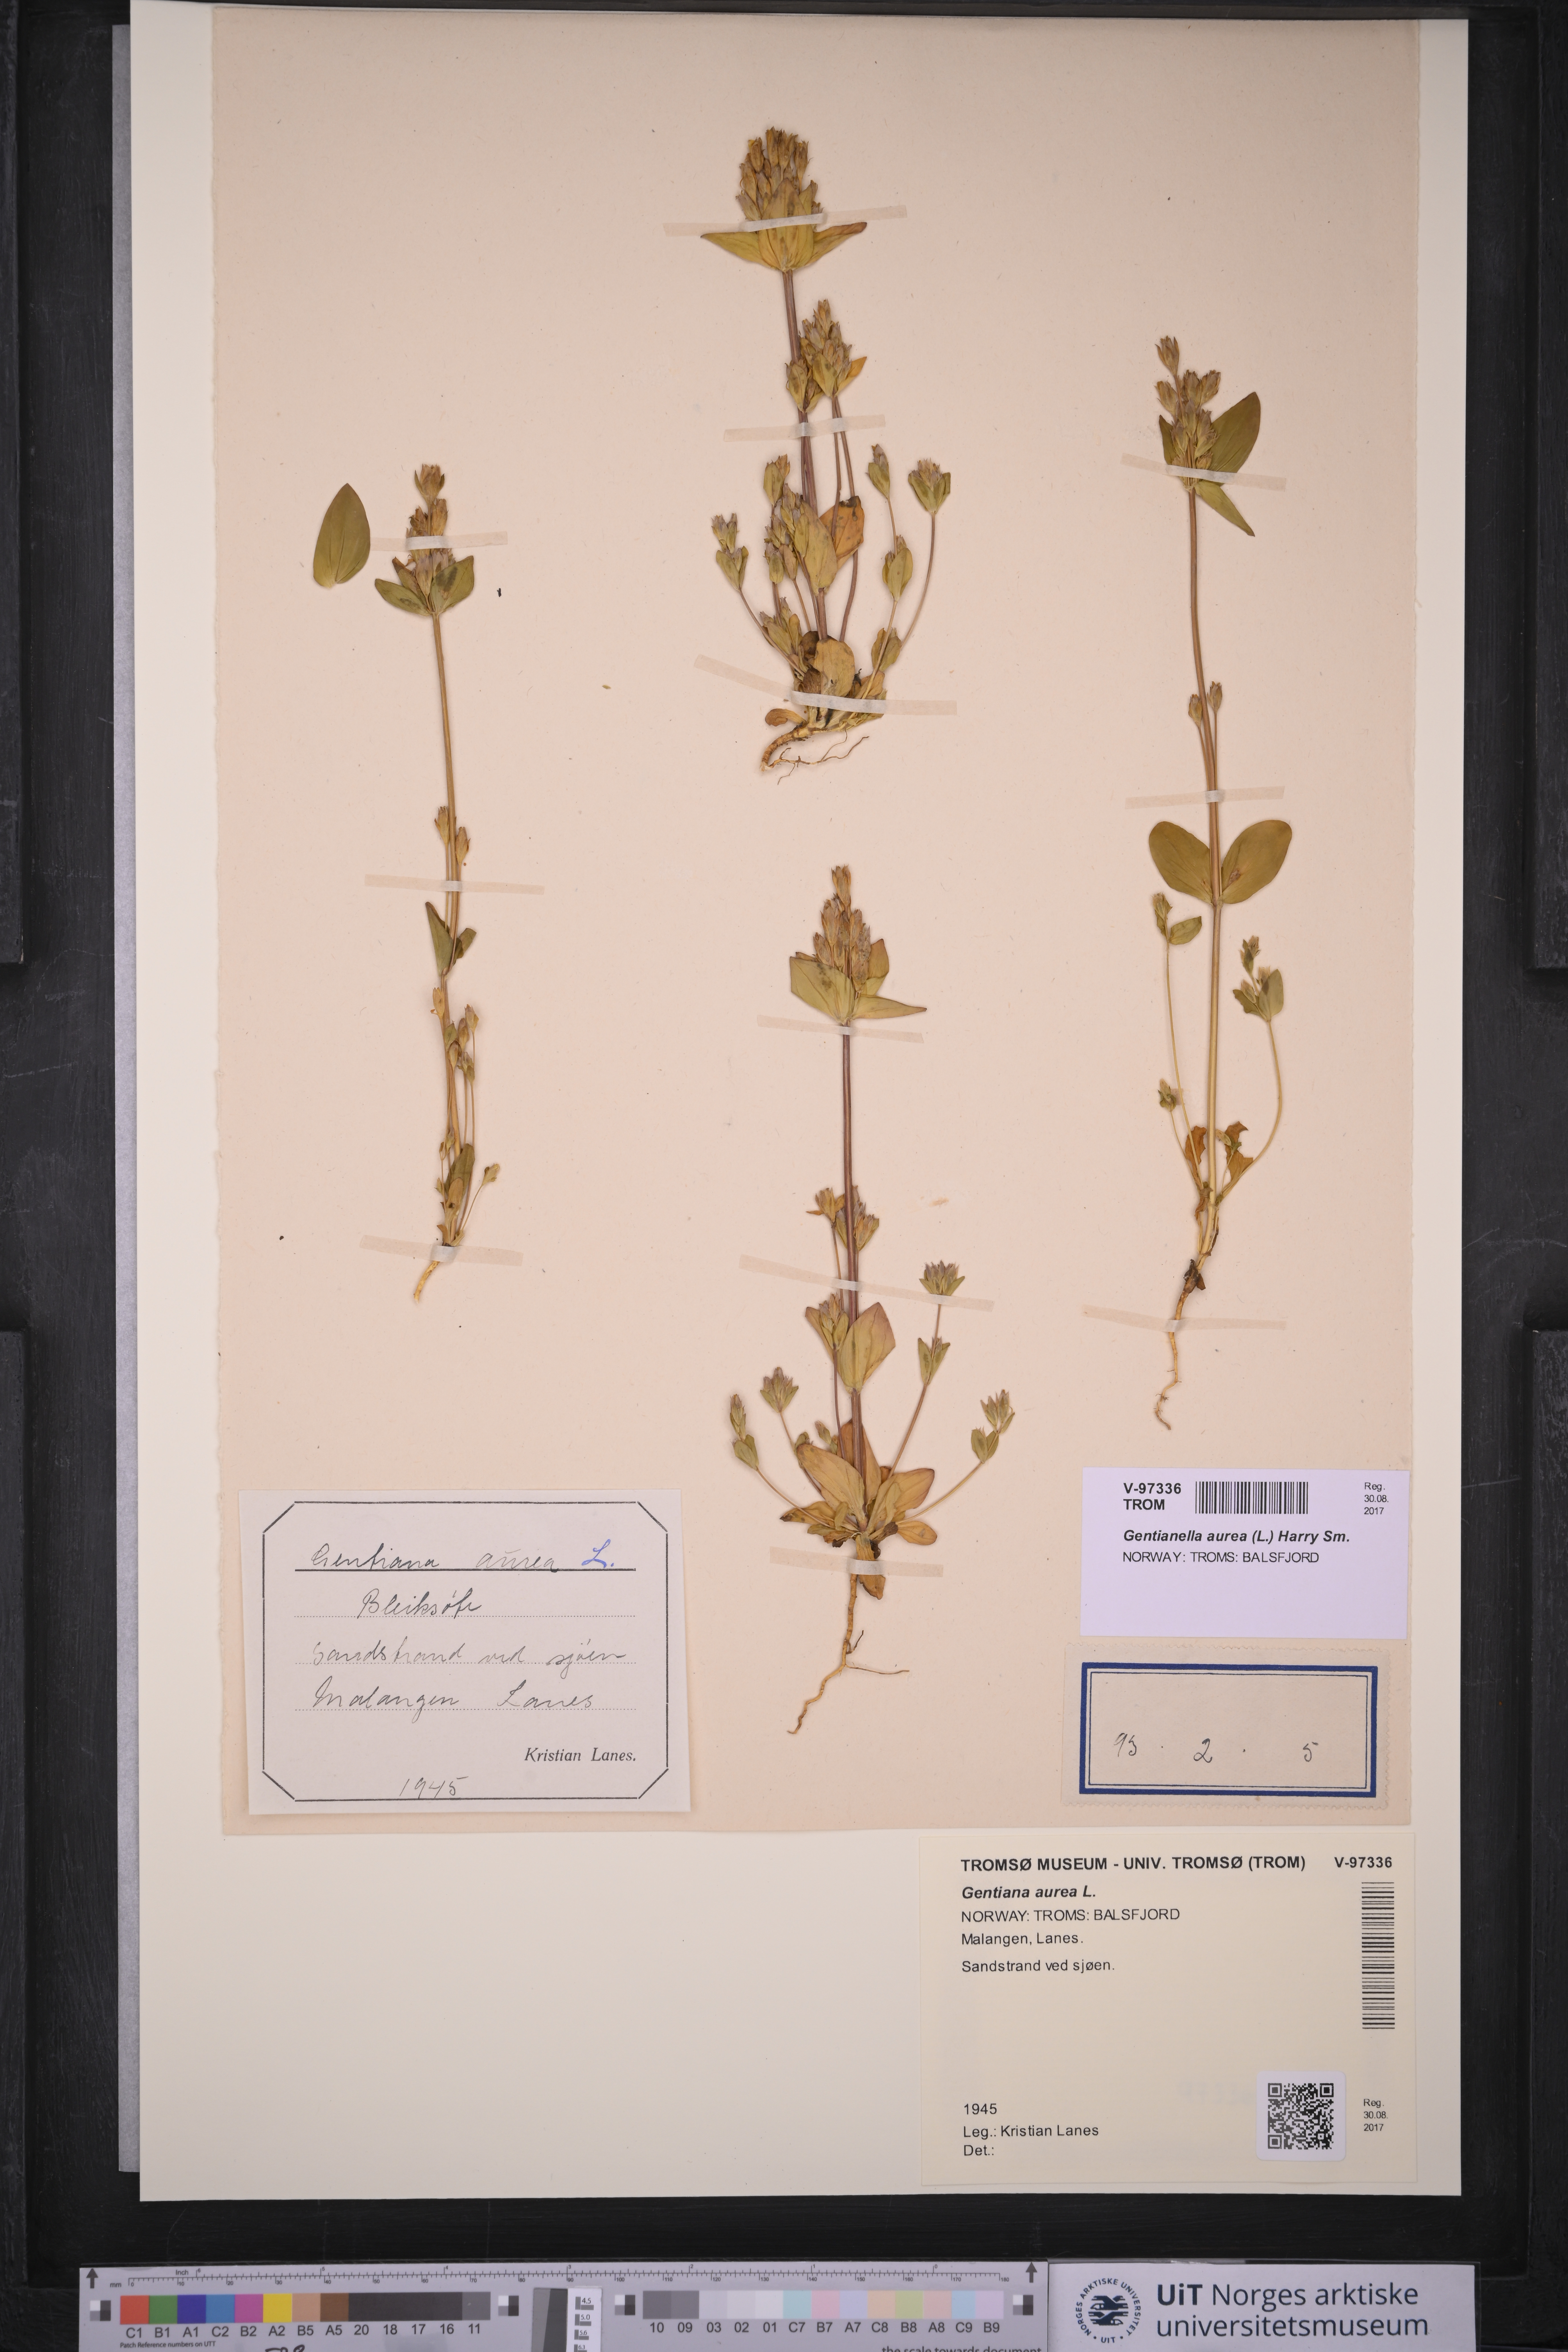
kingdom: Plantae
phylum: Tracheophyta
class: Magnoliopsida
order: Gentianales
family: Gentianaceae
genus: Gentianella
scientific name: Gentianella aurea
